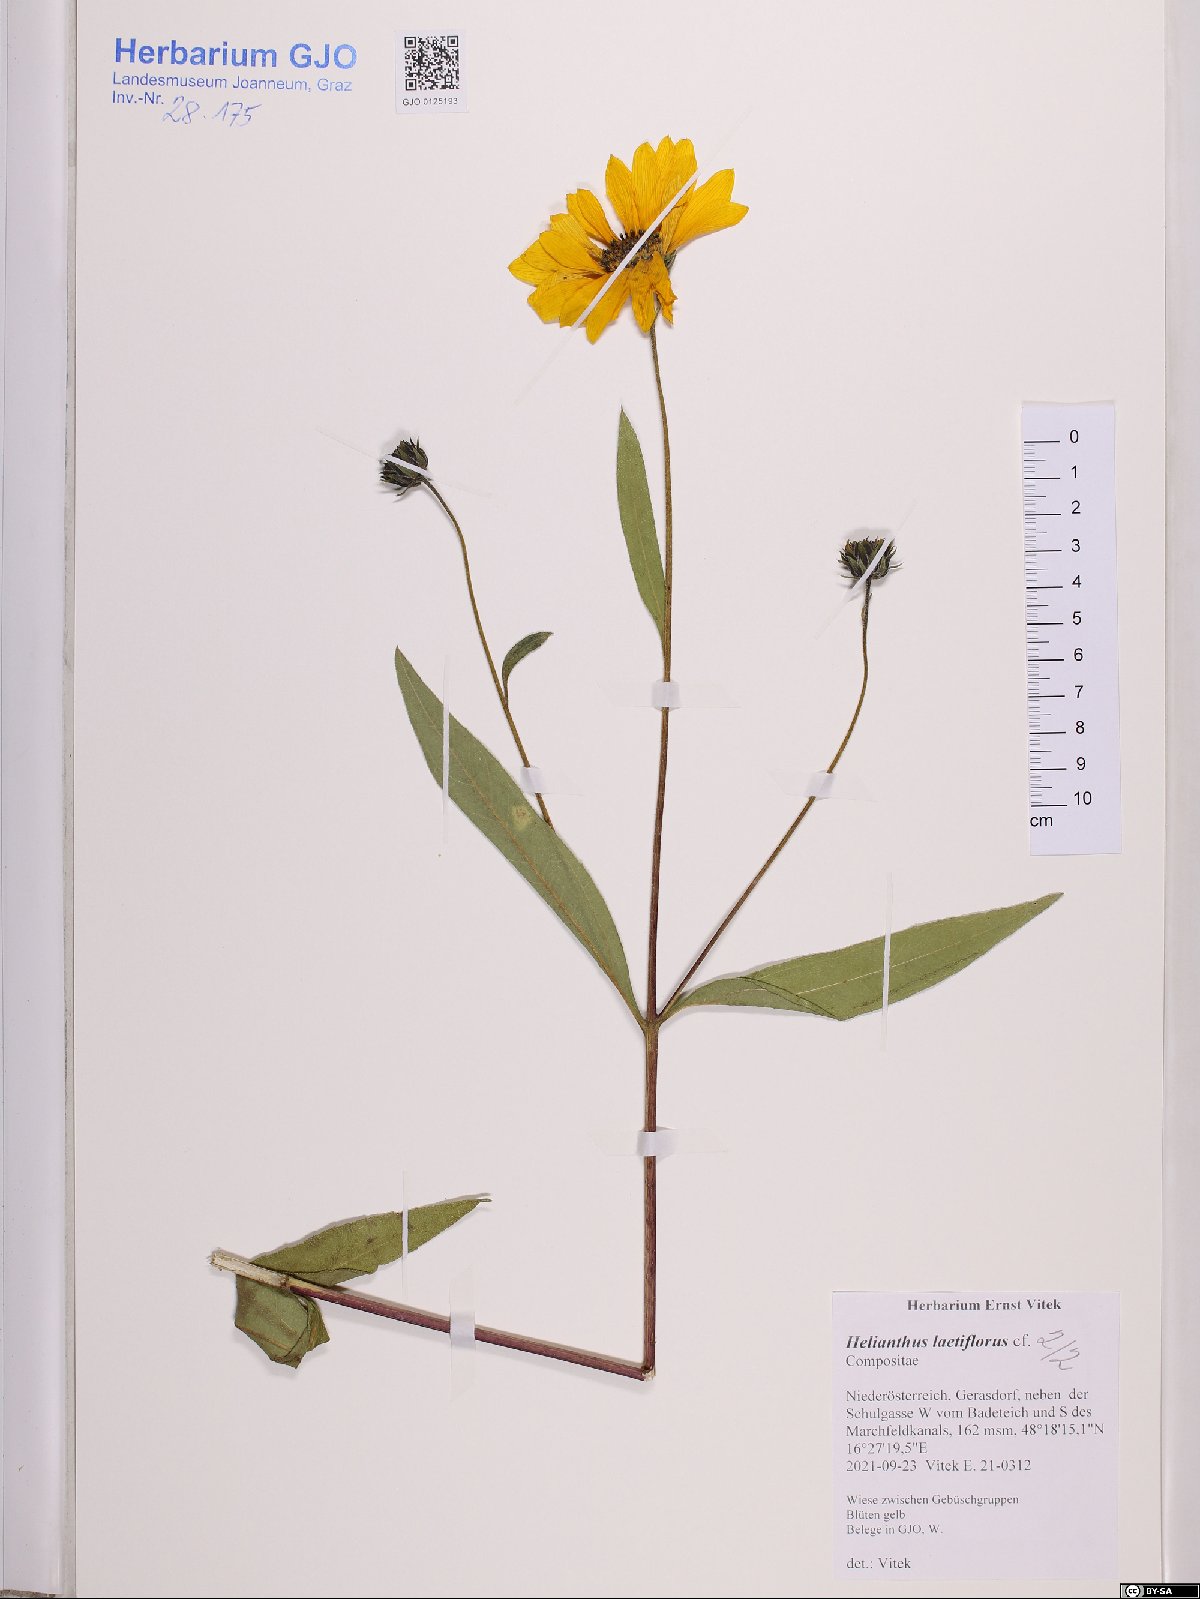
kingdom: Plantae
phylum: Tracheophyta
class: Magnoliopsida
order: Asterales
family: Asteraceae
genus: Helianthus
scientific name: Helianthus laetiflorus
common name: Perennial sunflower
